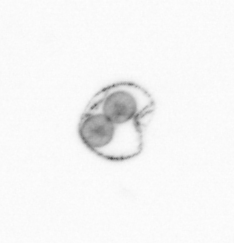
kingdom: Chromista
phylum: Myzozoa
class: Dinophyceae
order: Noctilucales
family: Noctilucaceae
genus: Noctiluca
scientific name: Noctiluca scintillans
